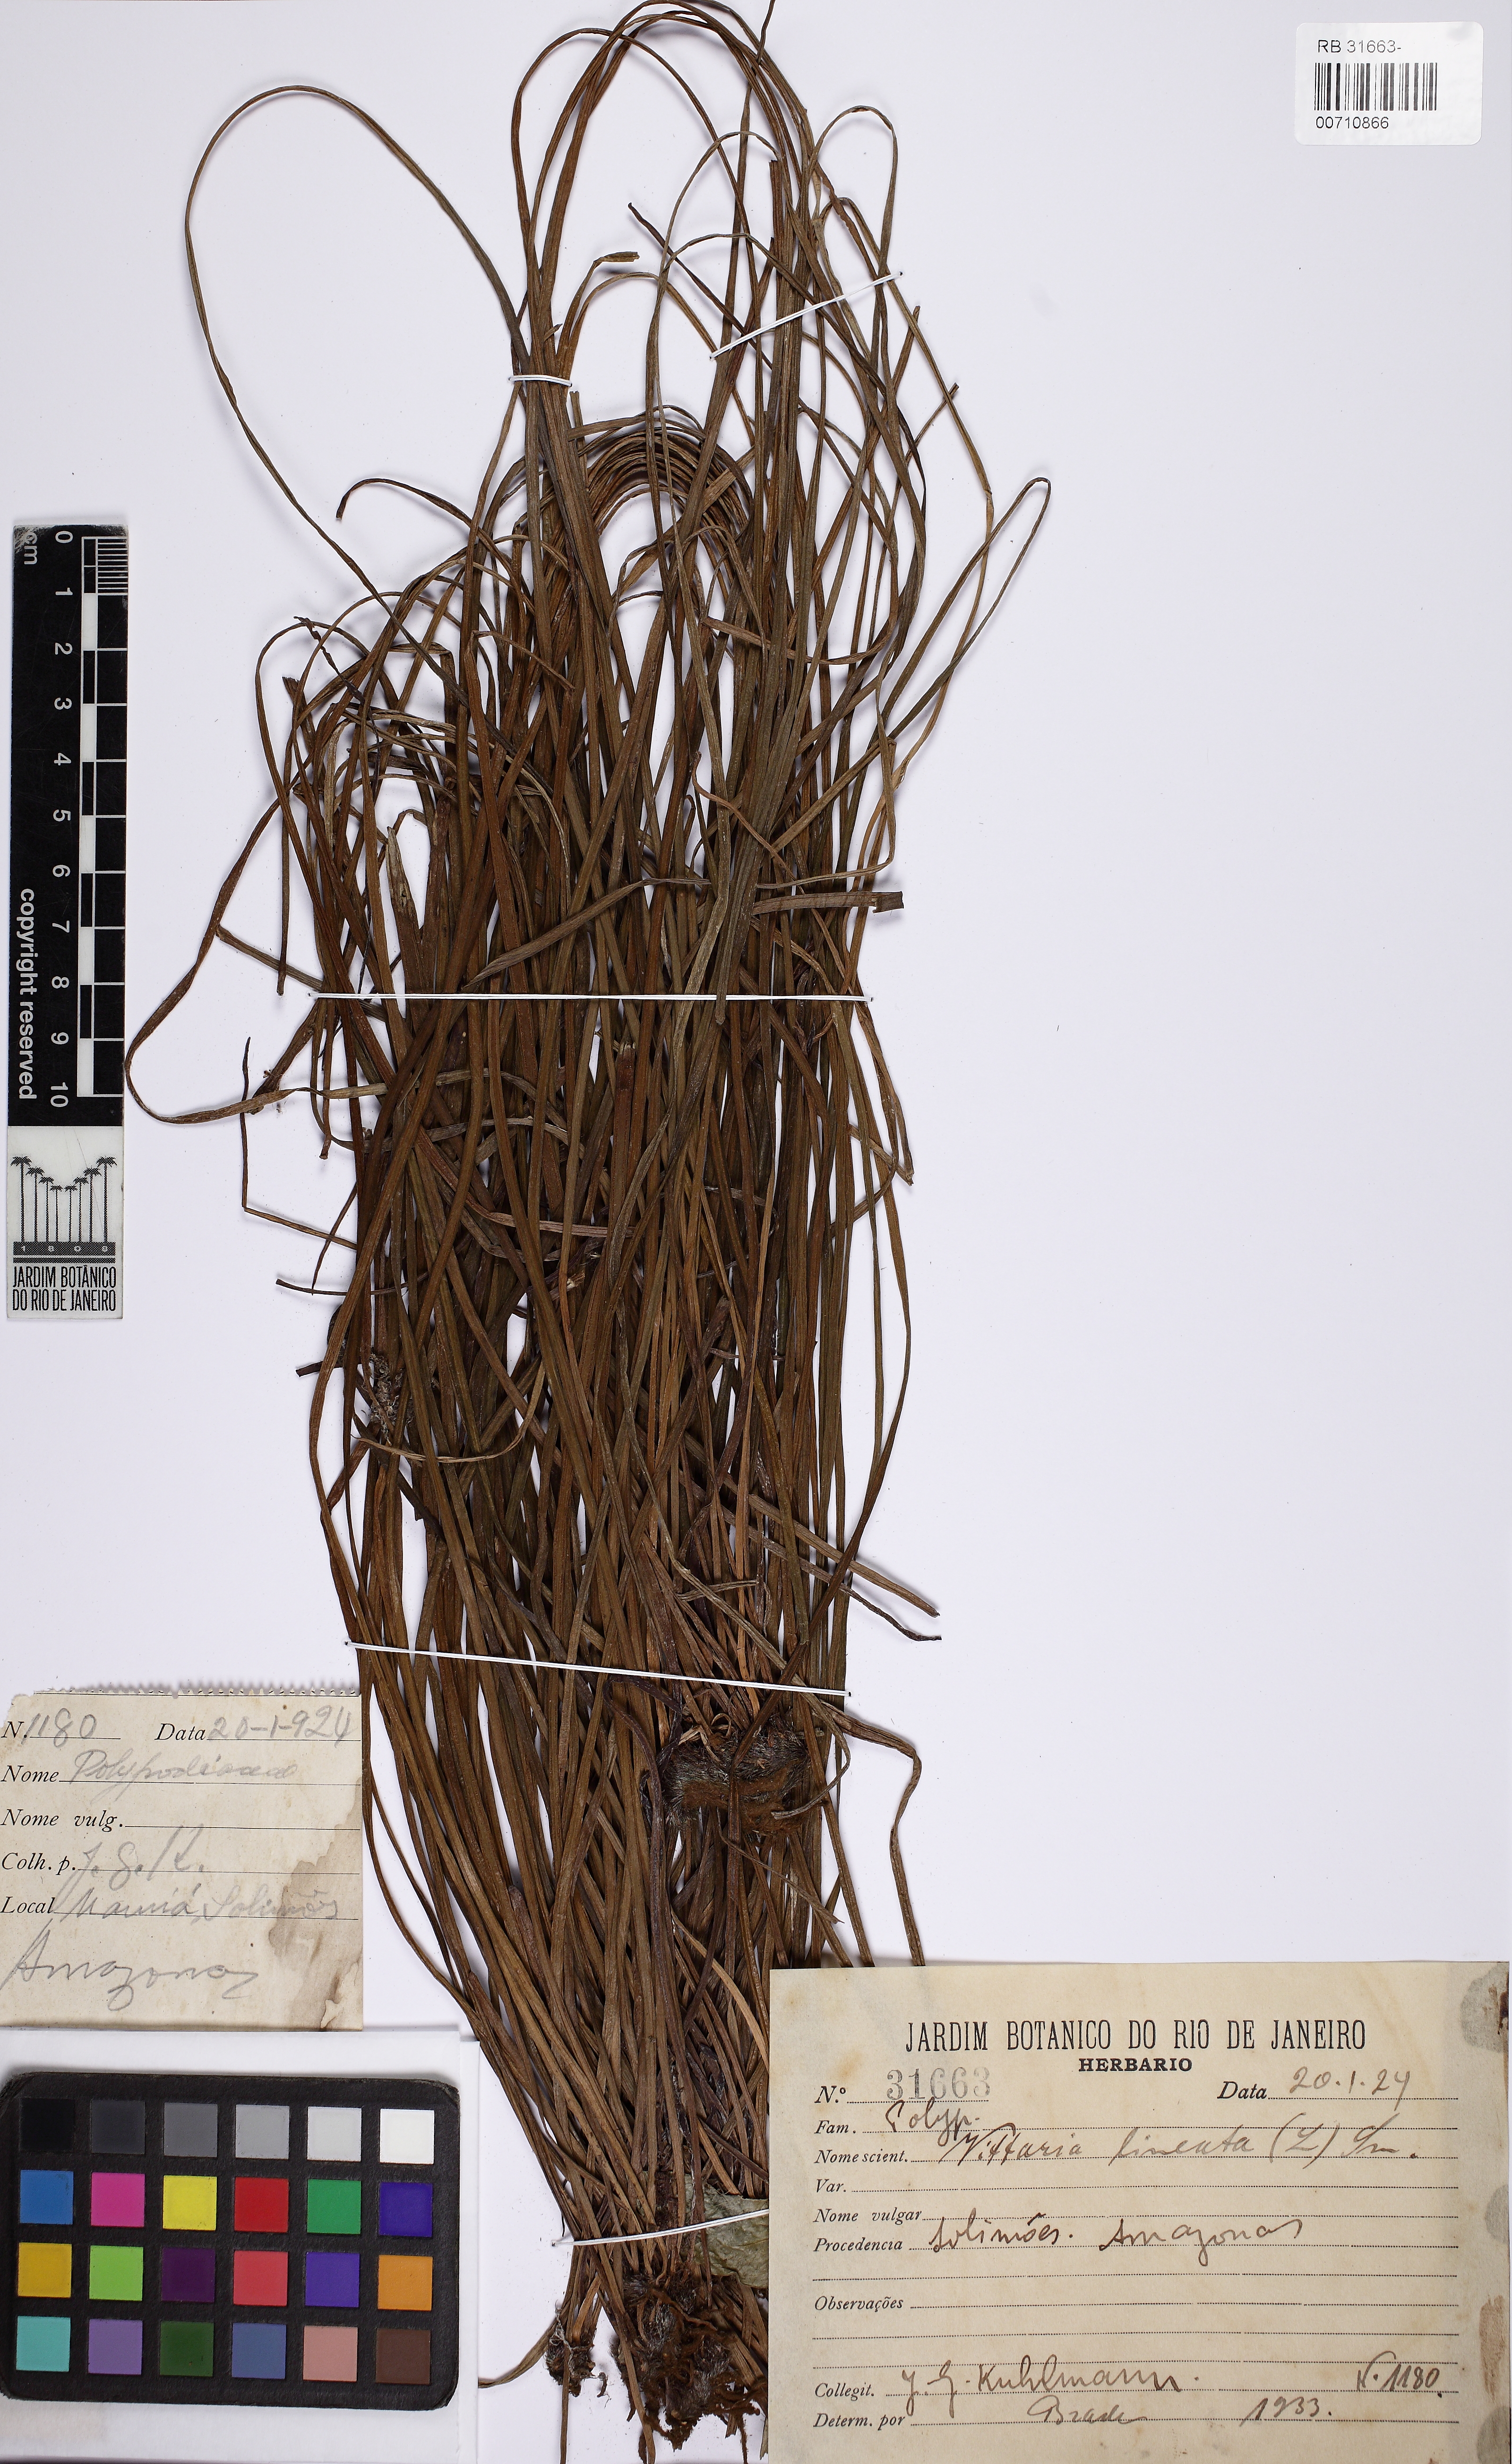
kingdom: Plantae
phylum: Tracheophyta
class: Polypodiopsida
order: Polypodiales
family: Pteridaceae
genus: Vittaria
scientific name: Vittaria lineata
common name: Shoestring fern
